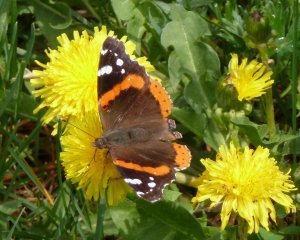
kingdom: Animalia
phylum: Arthropoda
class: Insecta
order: Lepidoptera
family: Nymphalidae
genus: Vanessa
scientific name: Vanessa atalanta
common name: Red Admiral
